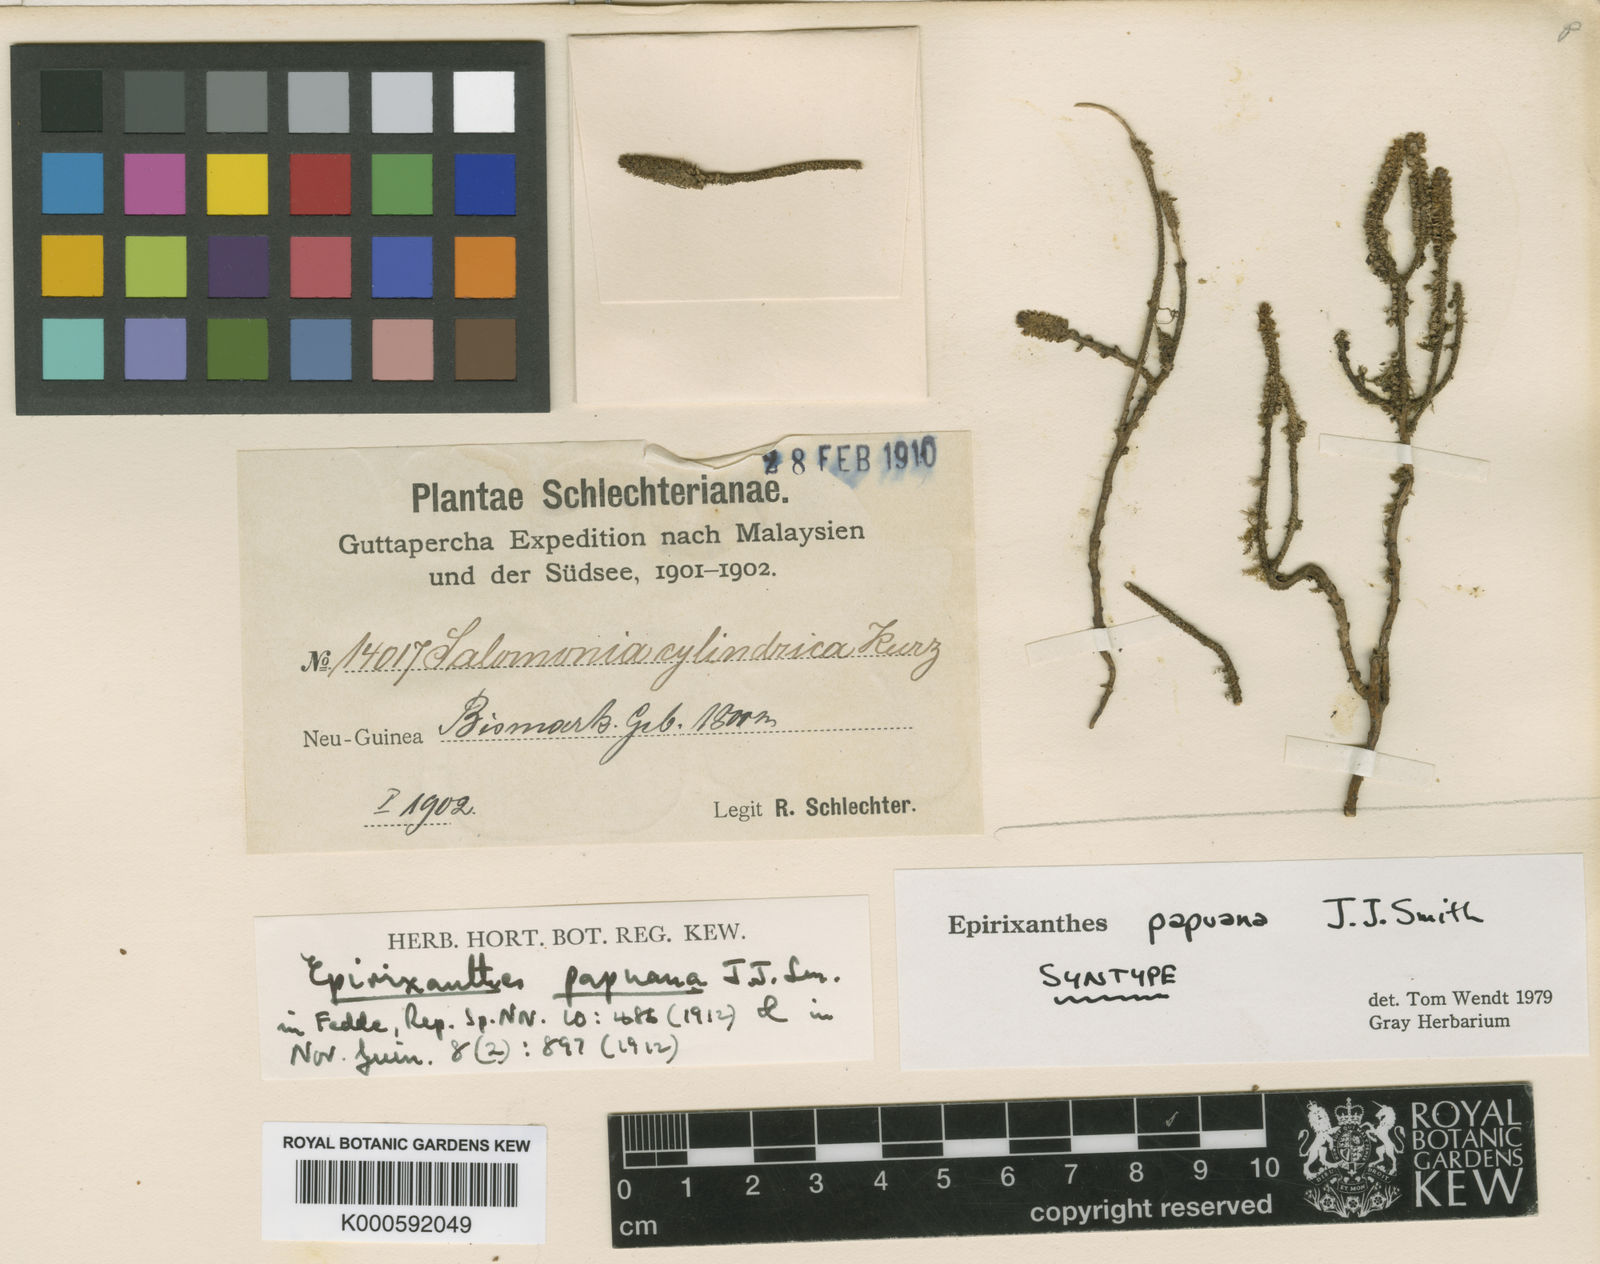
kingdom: Plantae
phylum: Tracheophyta
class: Magnoliopsida
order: Fabales
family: Polygalaceae
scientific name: Polygalaceae
